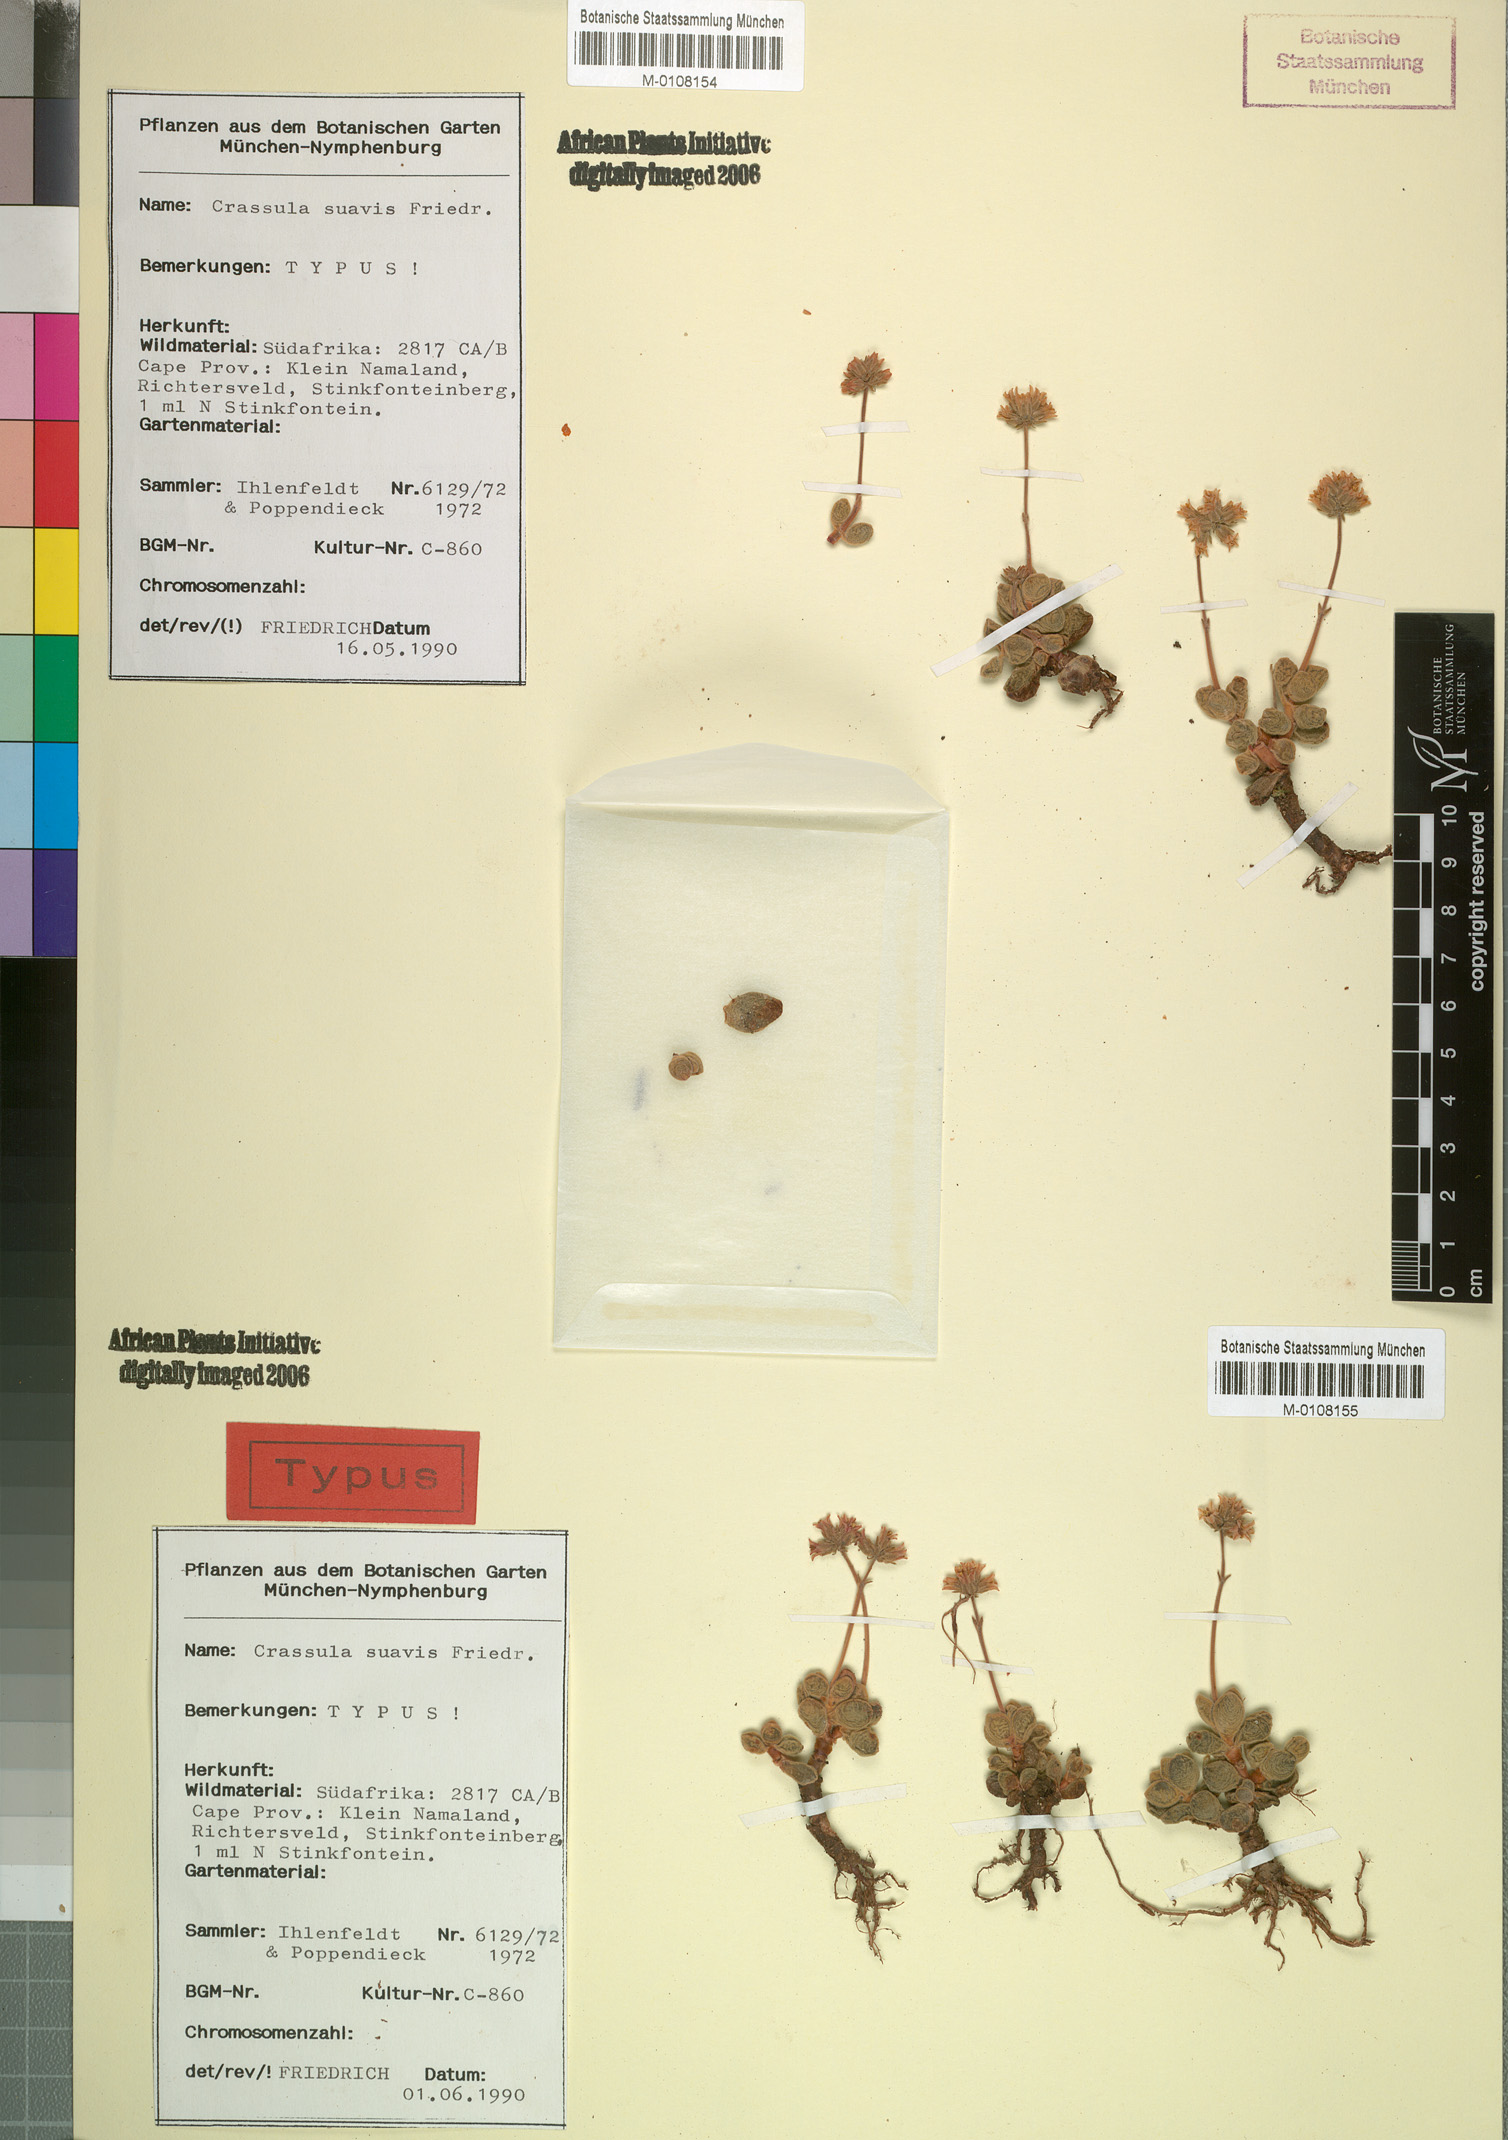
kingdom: Plantae
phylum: Tracheophyta
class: Magnoliopsida
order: Saxifragales
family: Crassulaceae
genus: Crassula
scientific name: Crassula sericea
